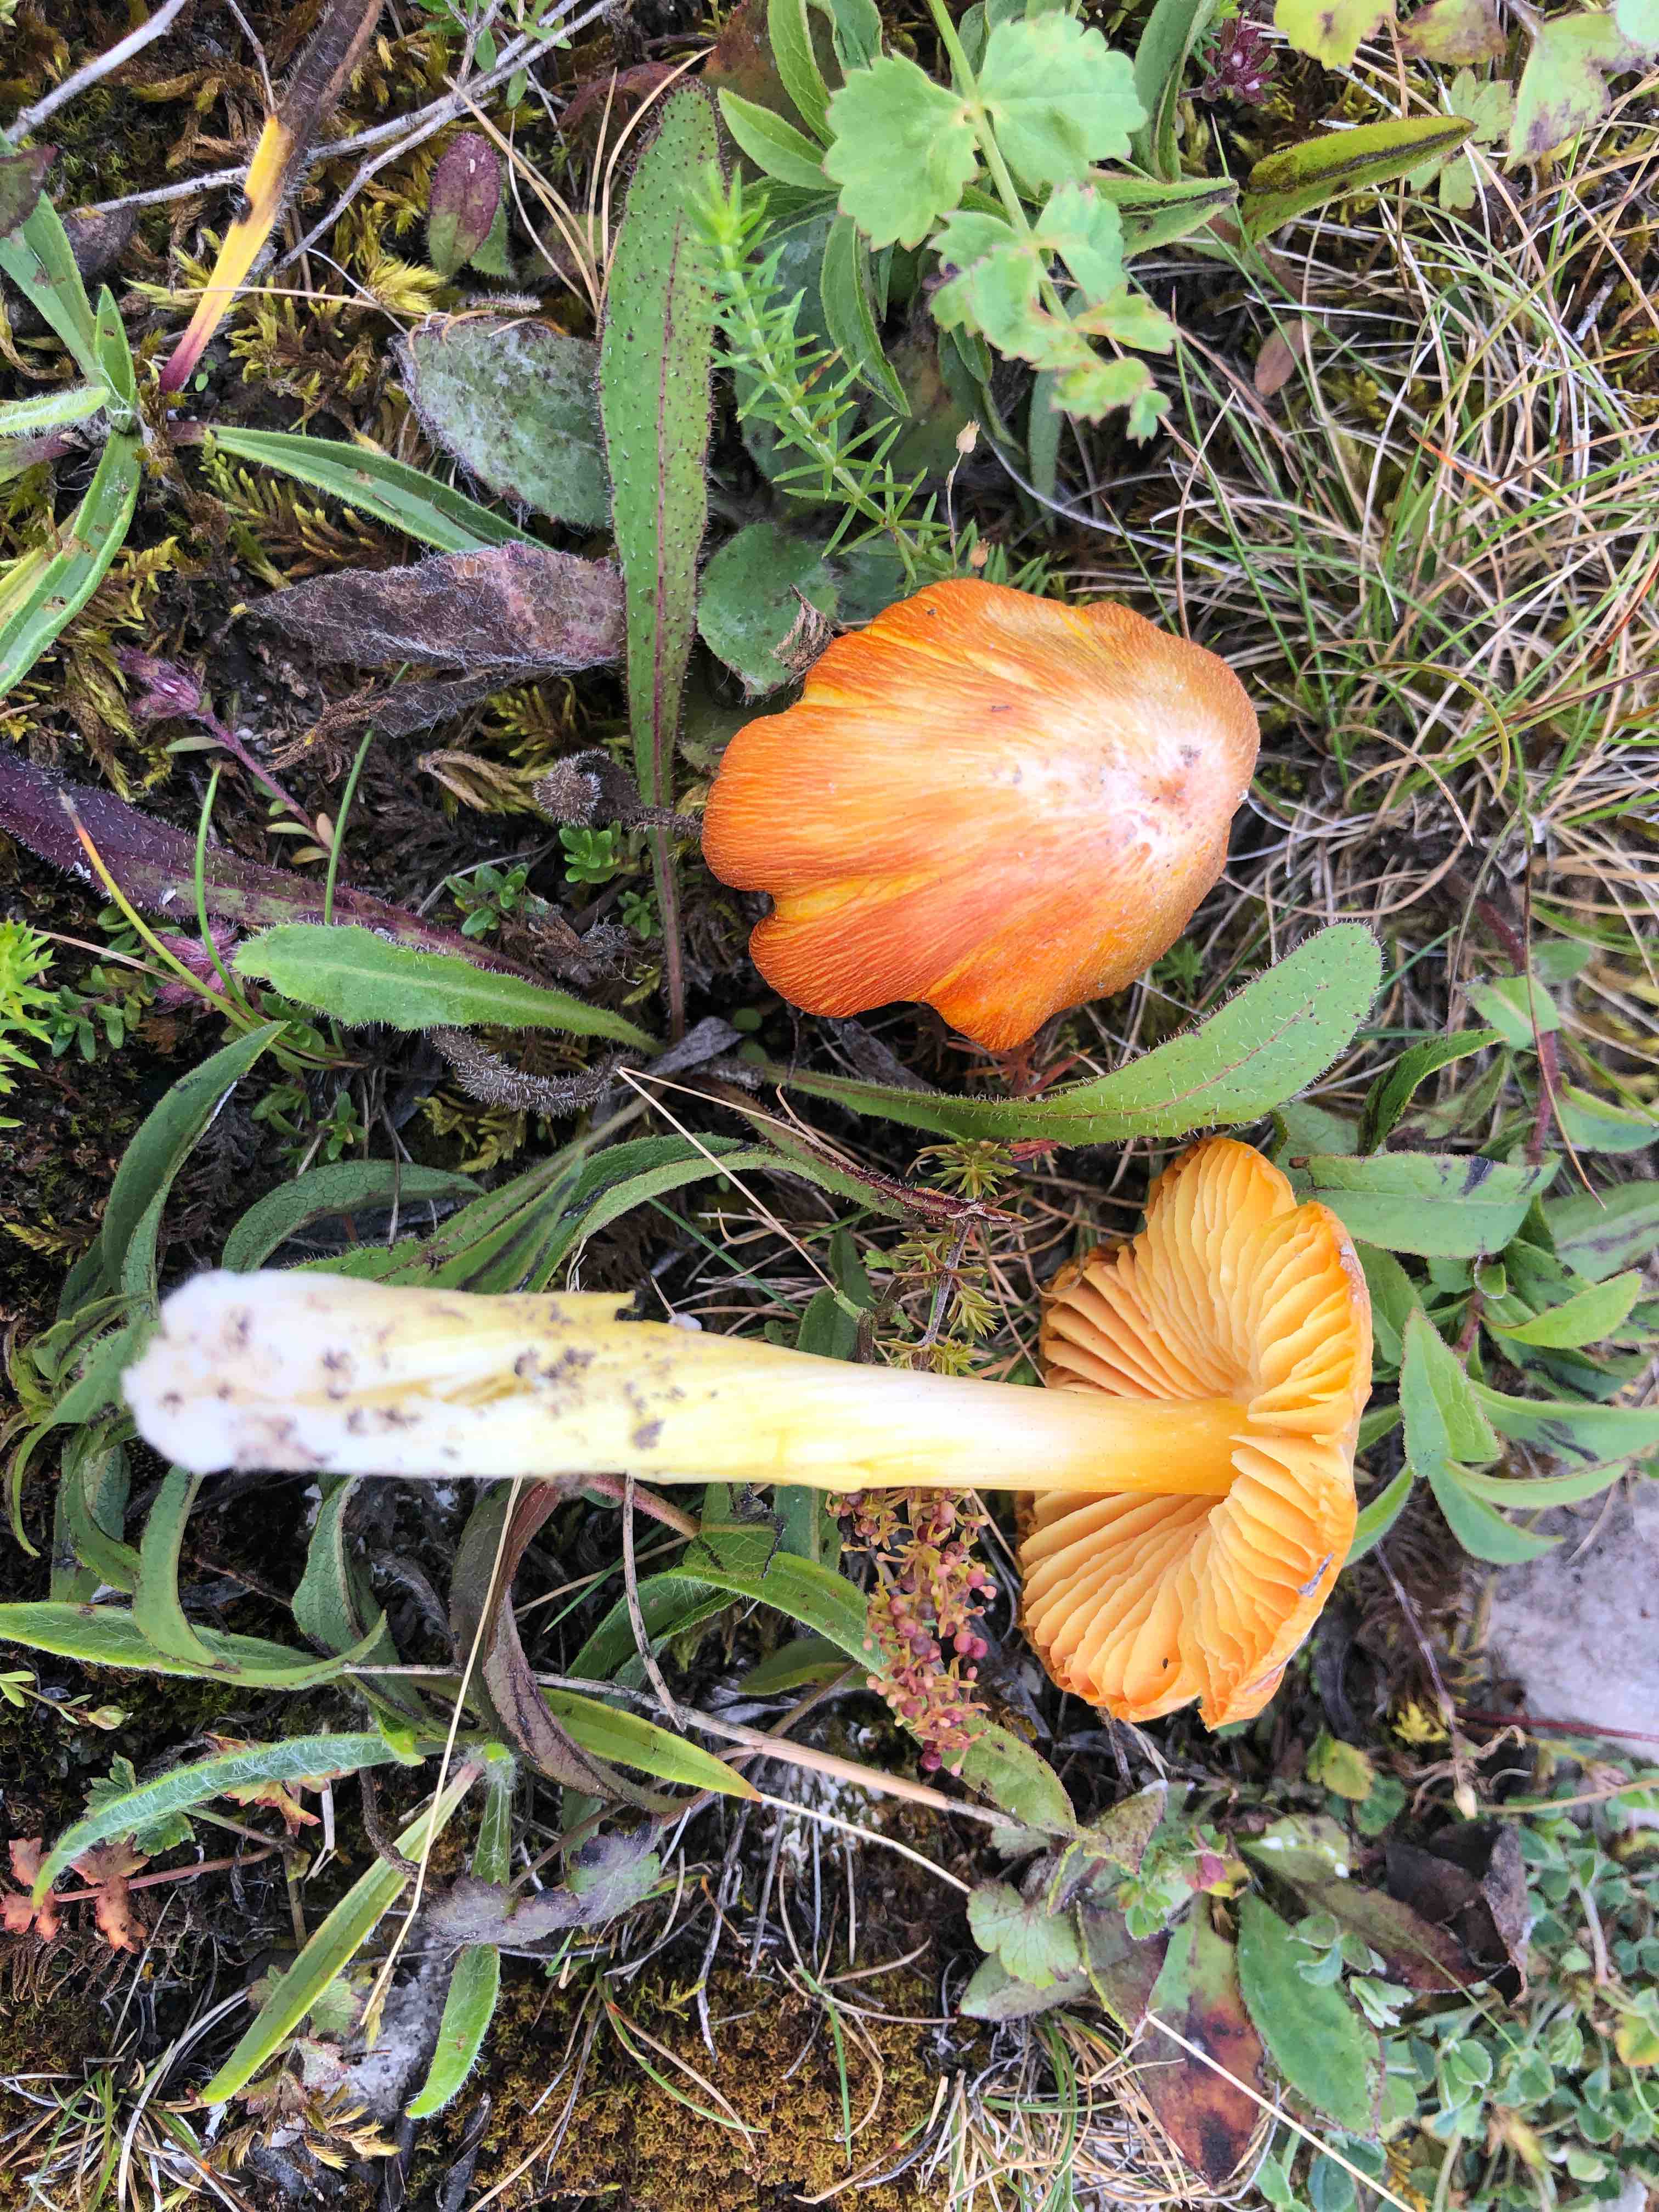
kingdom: Fungi
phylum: Basidiomycota
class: Agaricomycetes
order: Agaricales
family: Hygrophoraceae
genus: Hygrocybe
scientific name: Hygrocybe acutoconica
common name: spidspuklet vokshat
